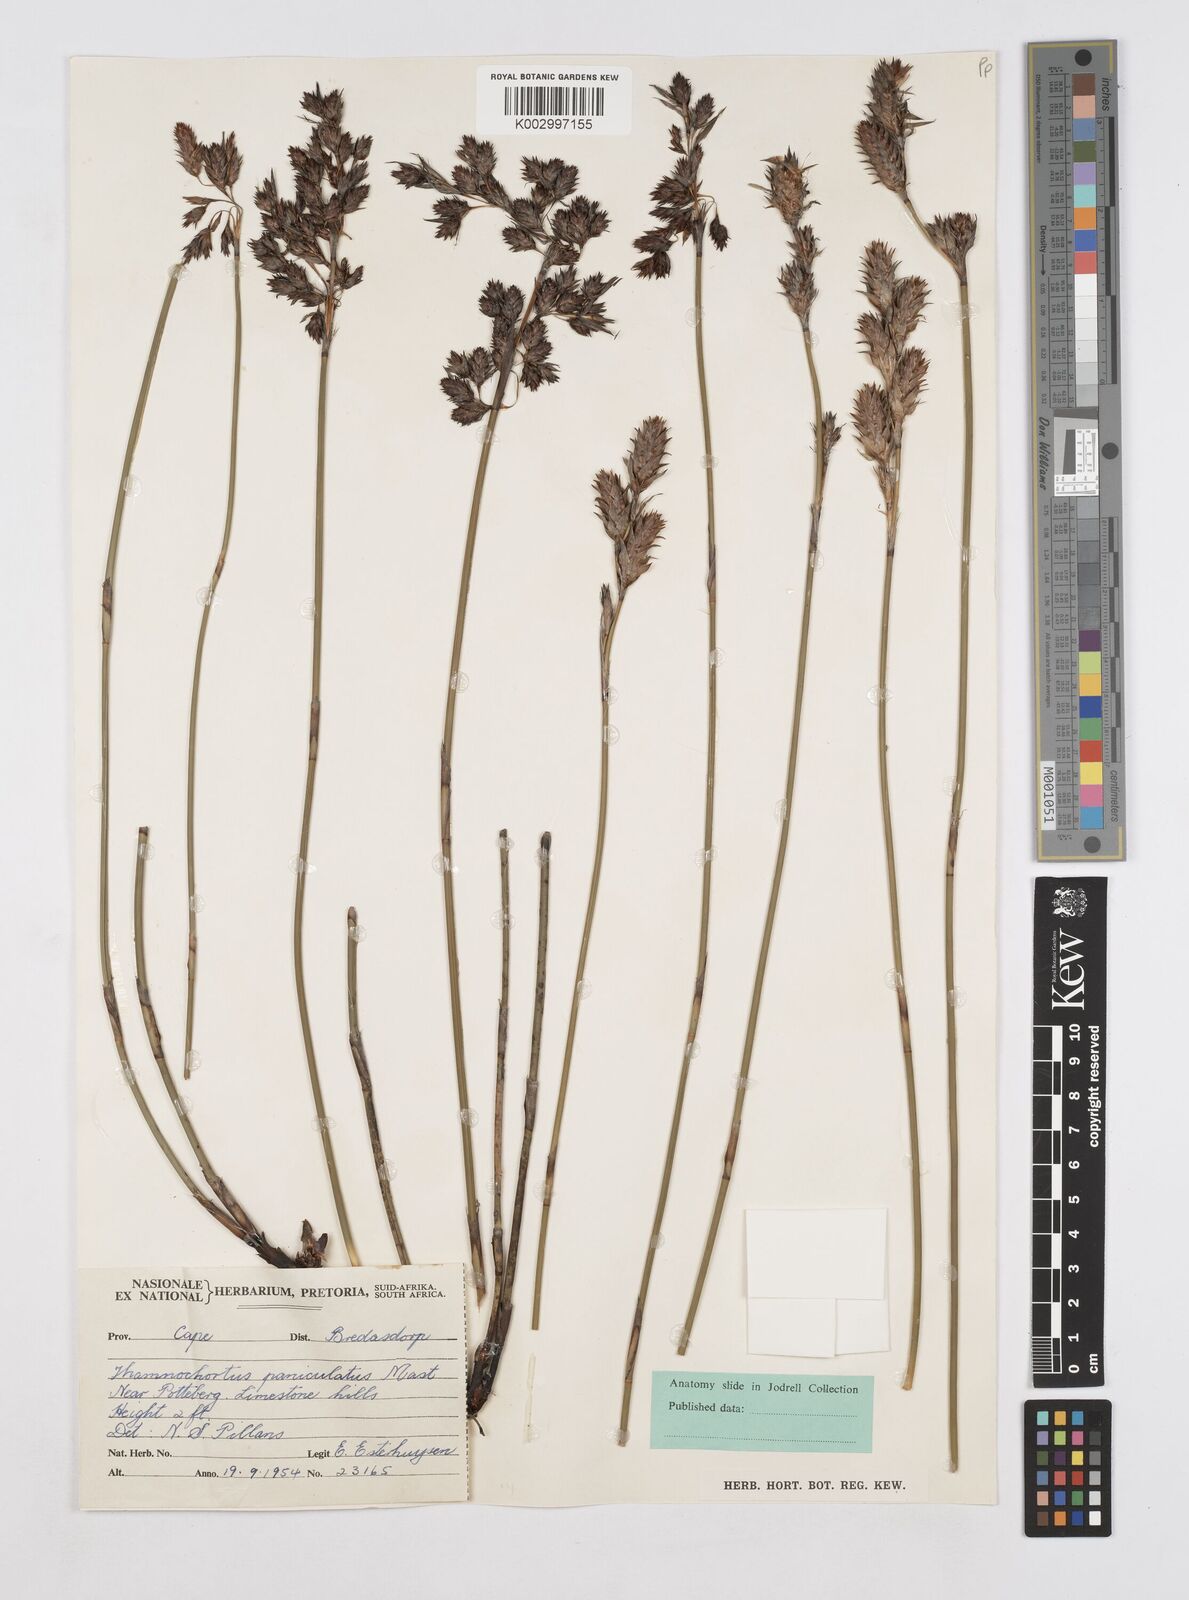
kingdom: Plantae
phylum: Tracheophyta
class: Liliopsida
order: Poales
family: Restionaceae
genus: Thamnochortus
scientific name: Thamnochortus paniculatus
